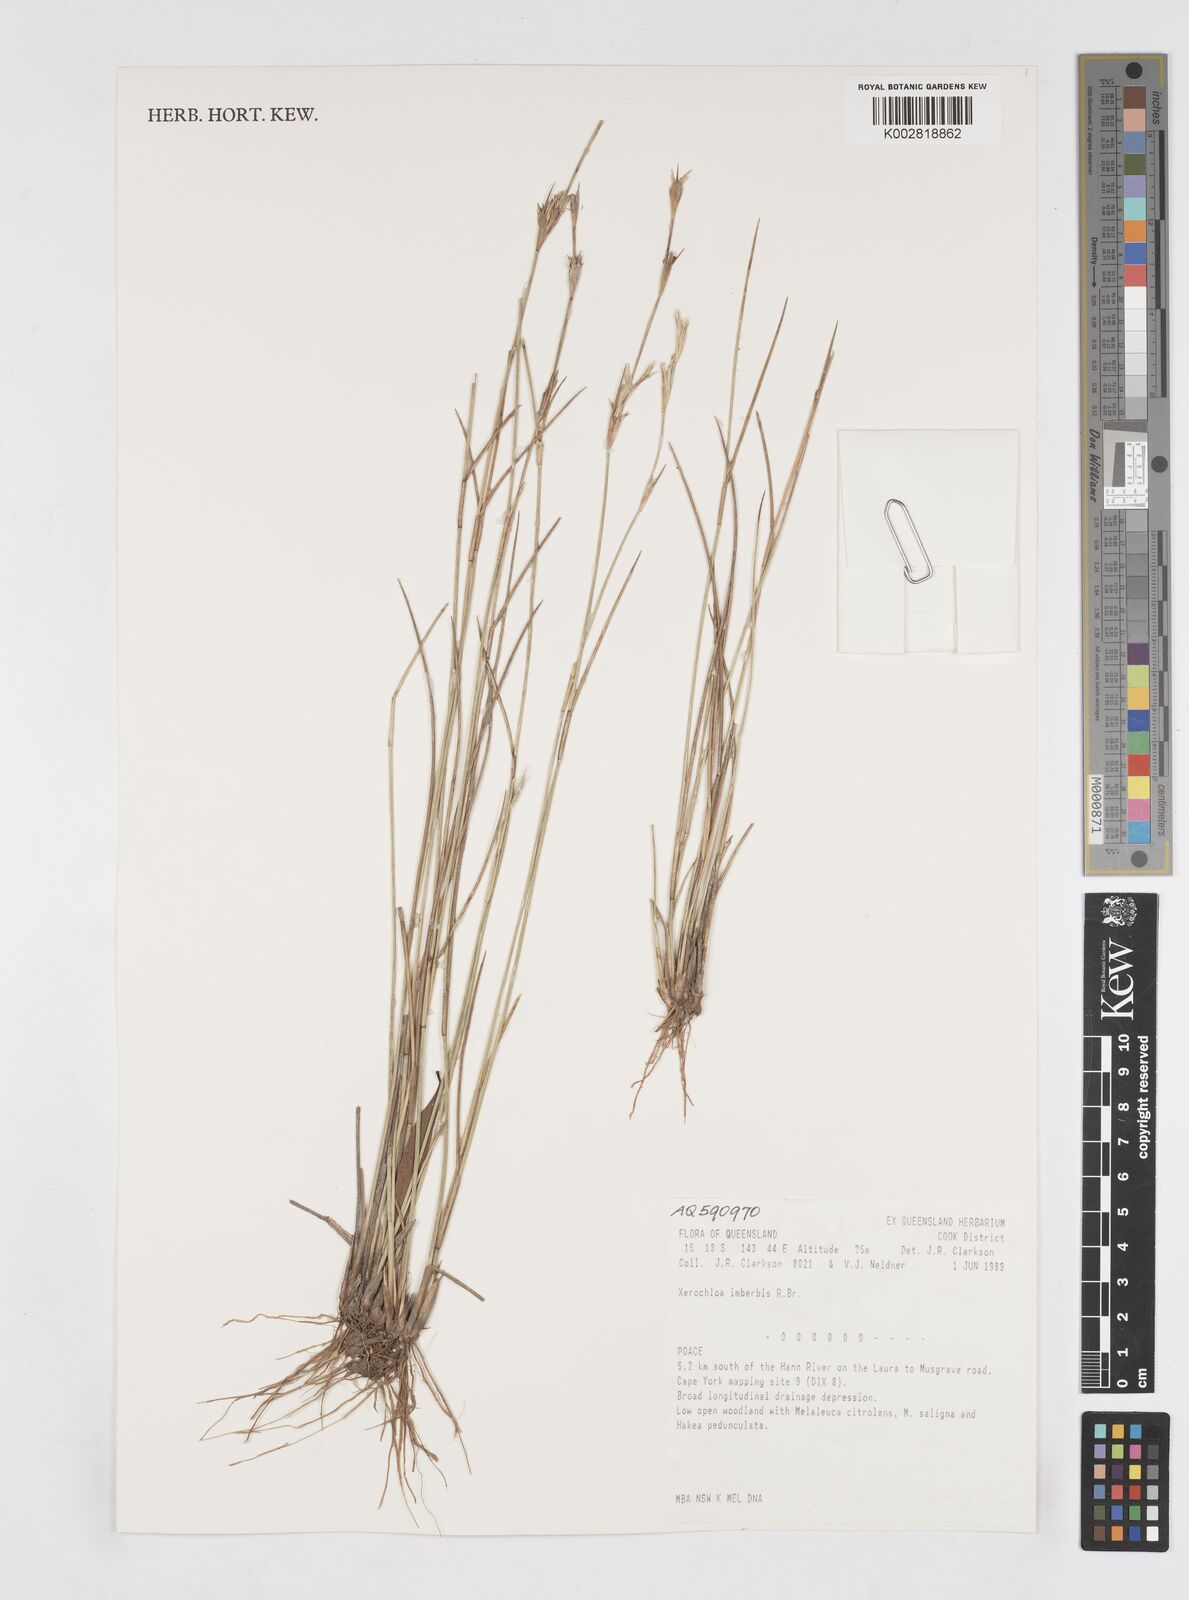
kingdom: Plantae
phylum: Tracheophyta
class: Liliopsida
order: Poales
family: Poaceae
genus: Xerochloa
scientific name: Xerochloa imberbis
